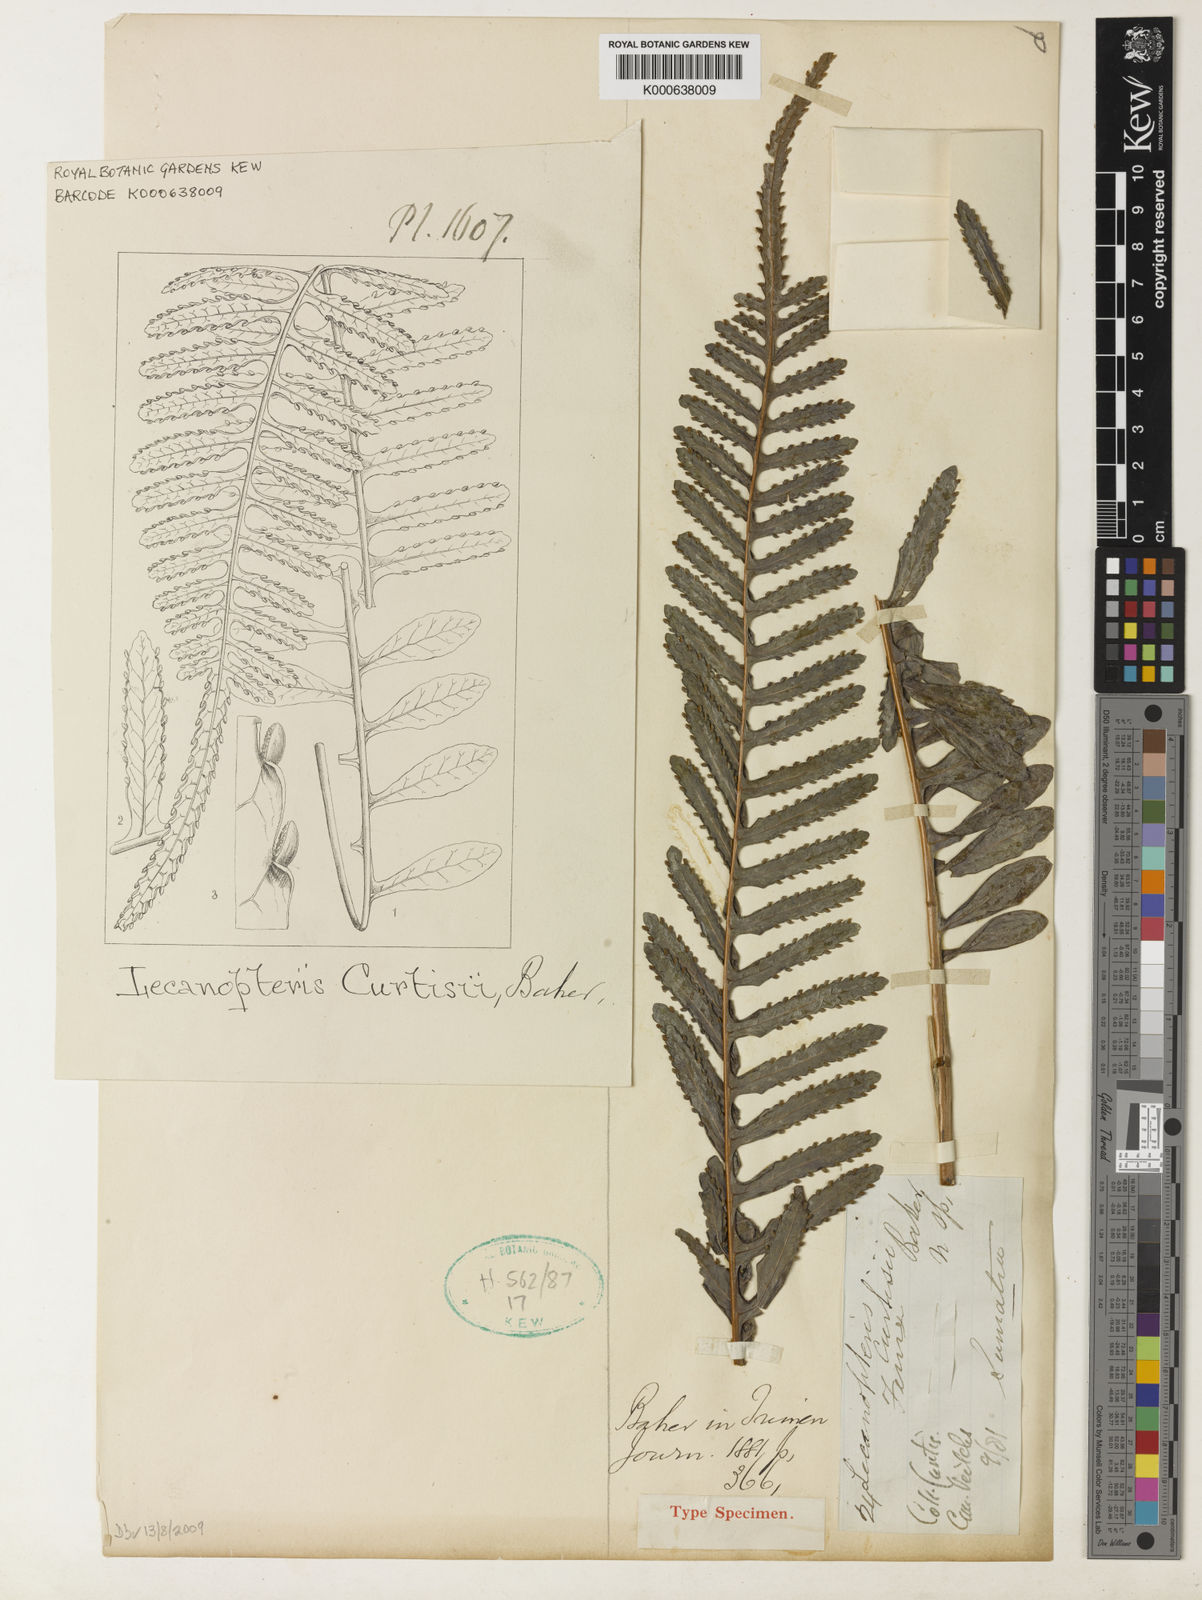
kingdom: Plantae
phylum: Tracheophyta
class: Polypodiopsida
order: Polypodiales
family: Polypodiaceae
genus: Lecanopteris
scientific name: Lecanopteris deparioides
